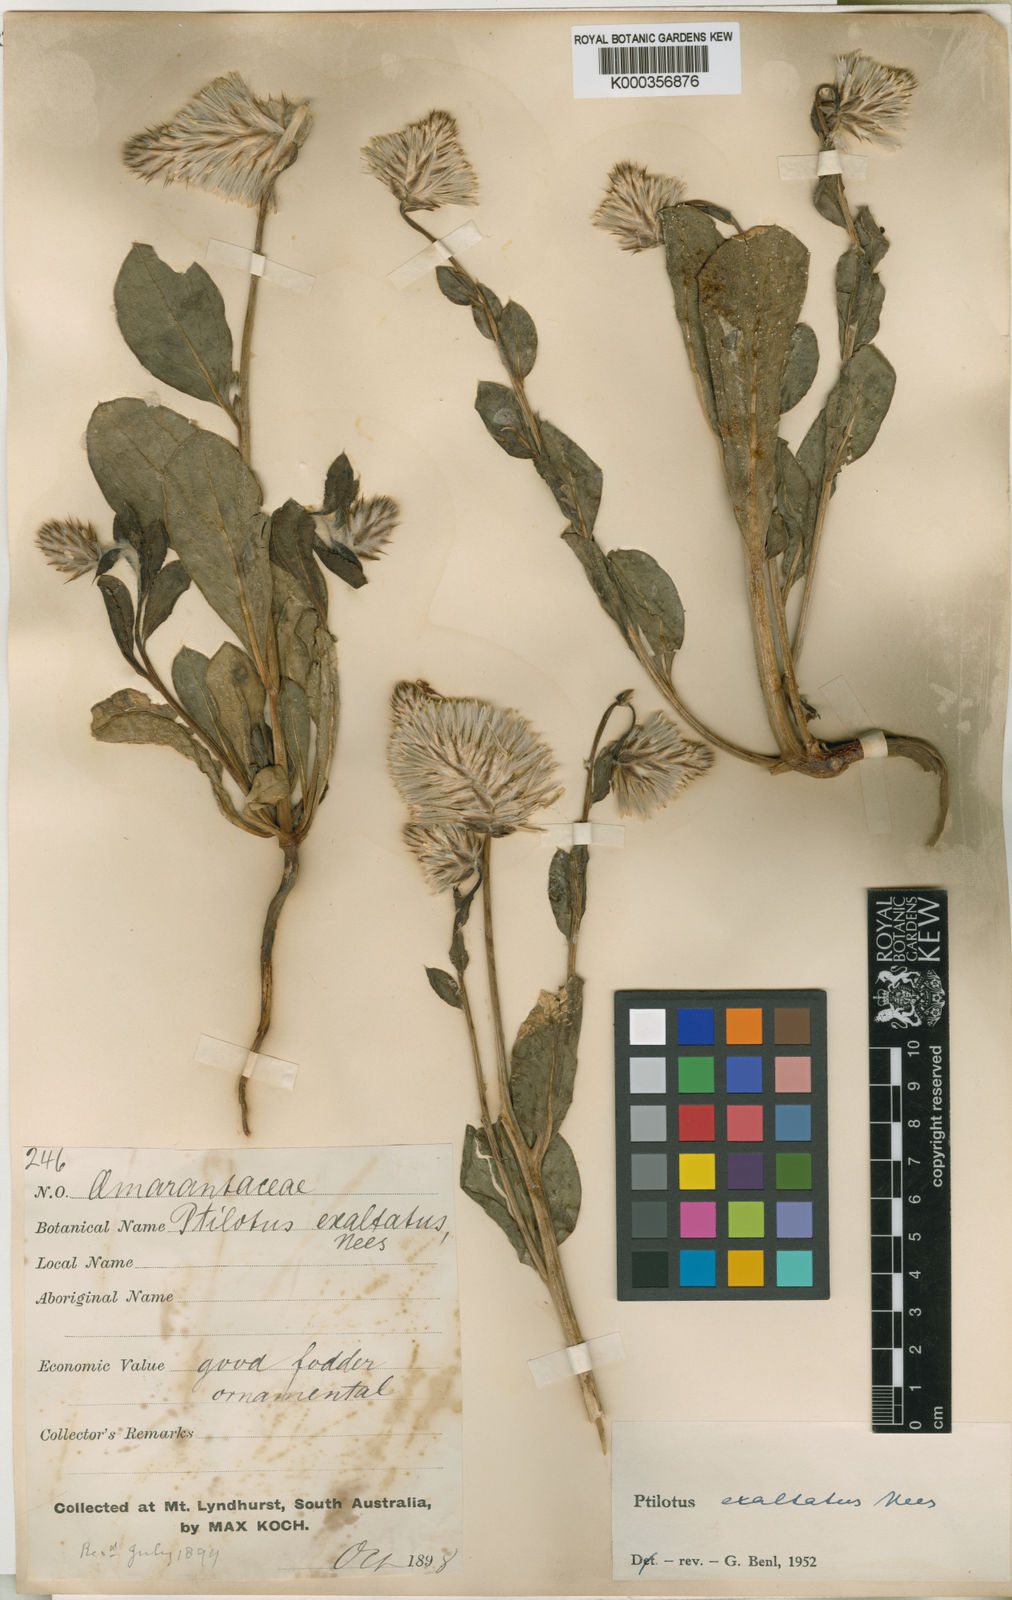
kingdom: Plantae
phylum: Tracheophyta
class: Magnoliopsida
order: Caryophyllales
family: Amaranthaceae
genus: Ptilotus
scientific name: Ptilotus exaltatus
